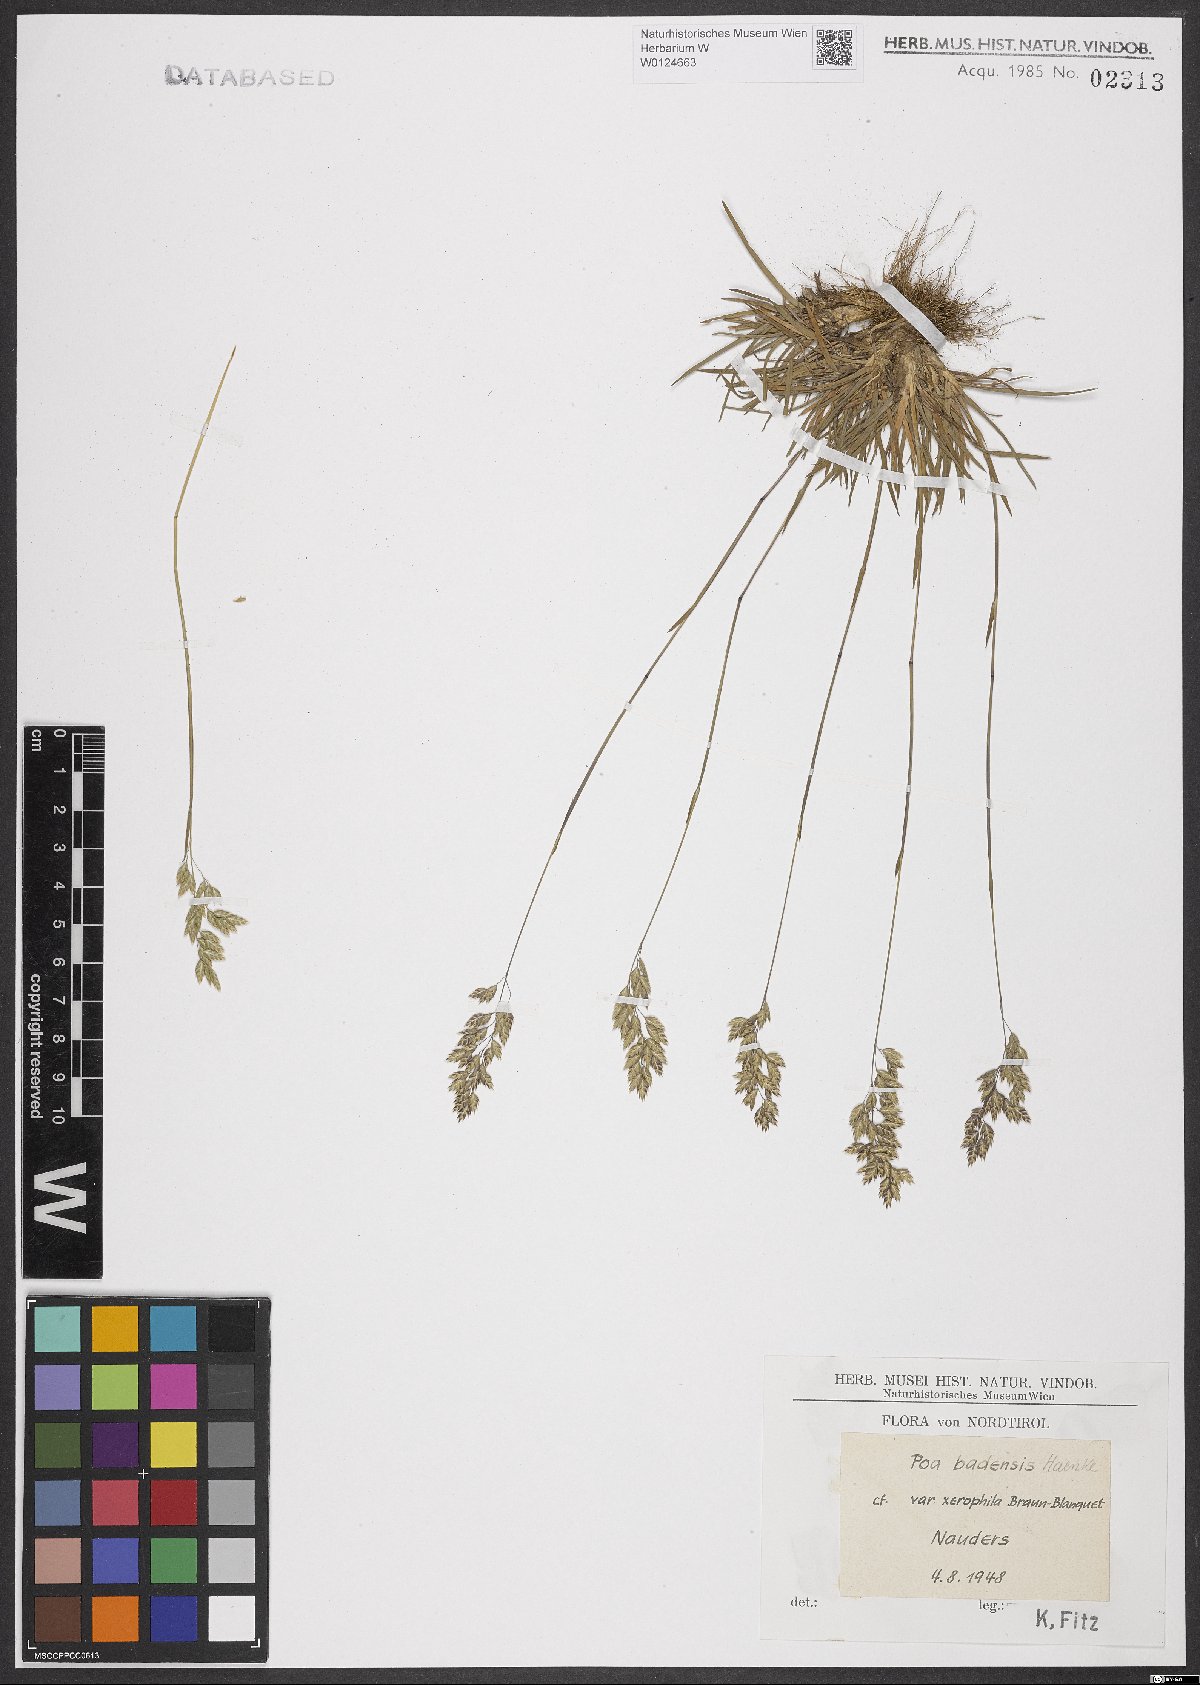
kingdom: Plantae
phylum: Tracheophyta
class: Liliopsida
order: Poales
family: Poaceae
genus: Poa
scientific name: Poa badensis
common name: Baden's bluegrass
